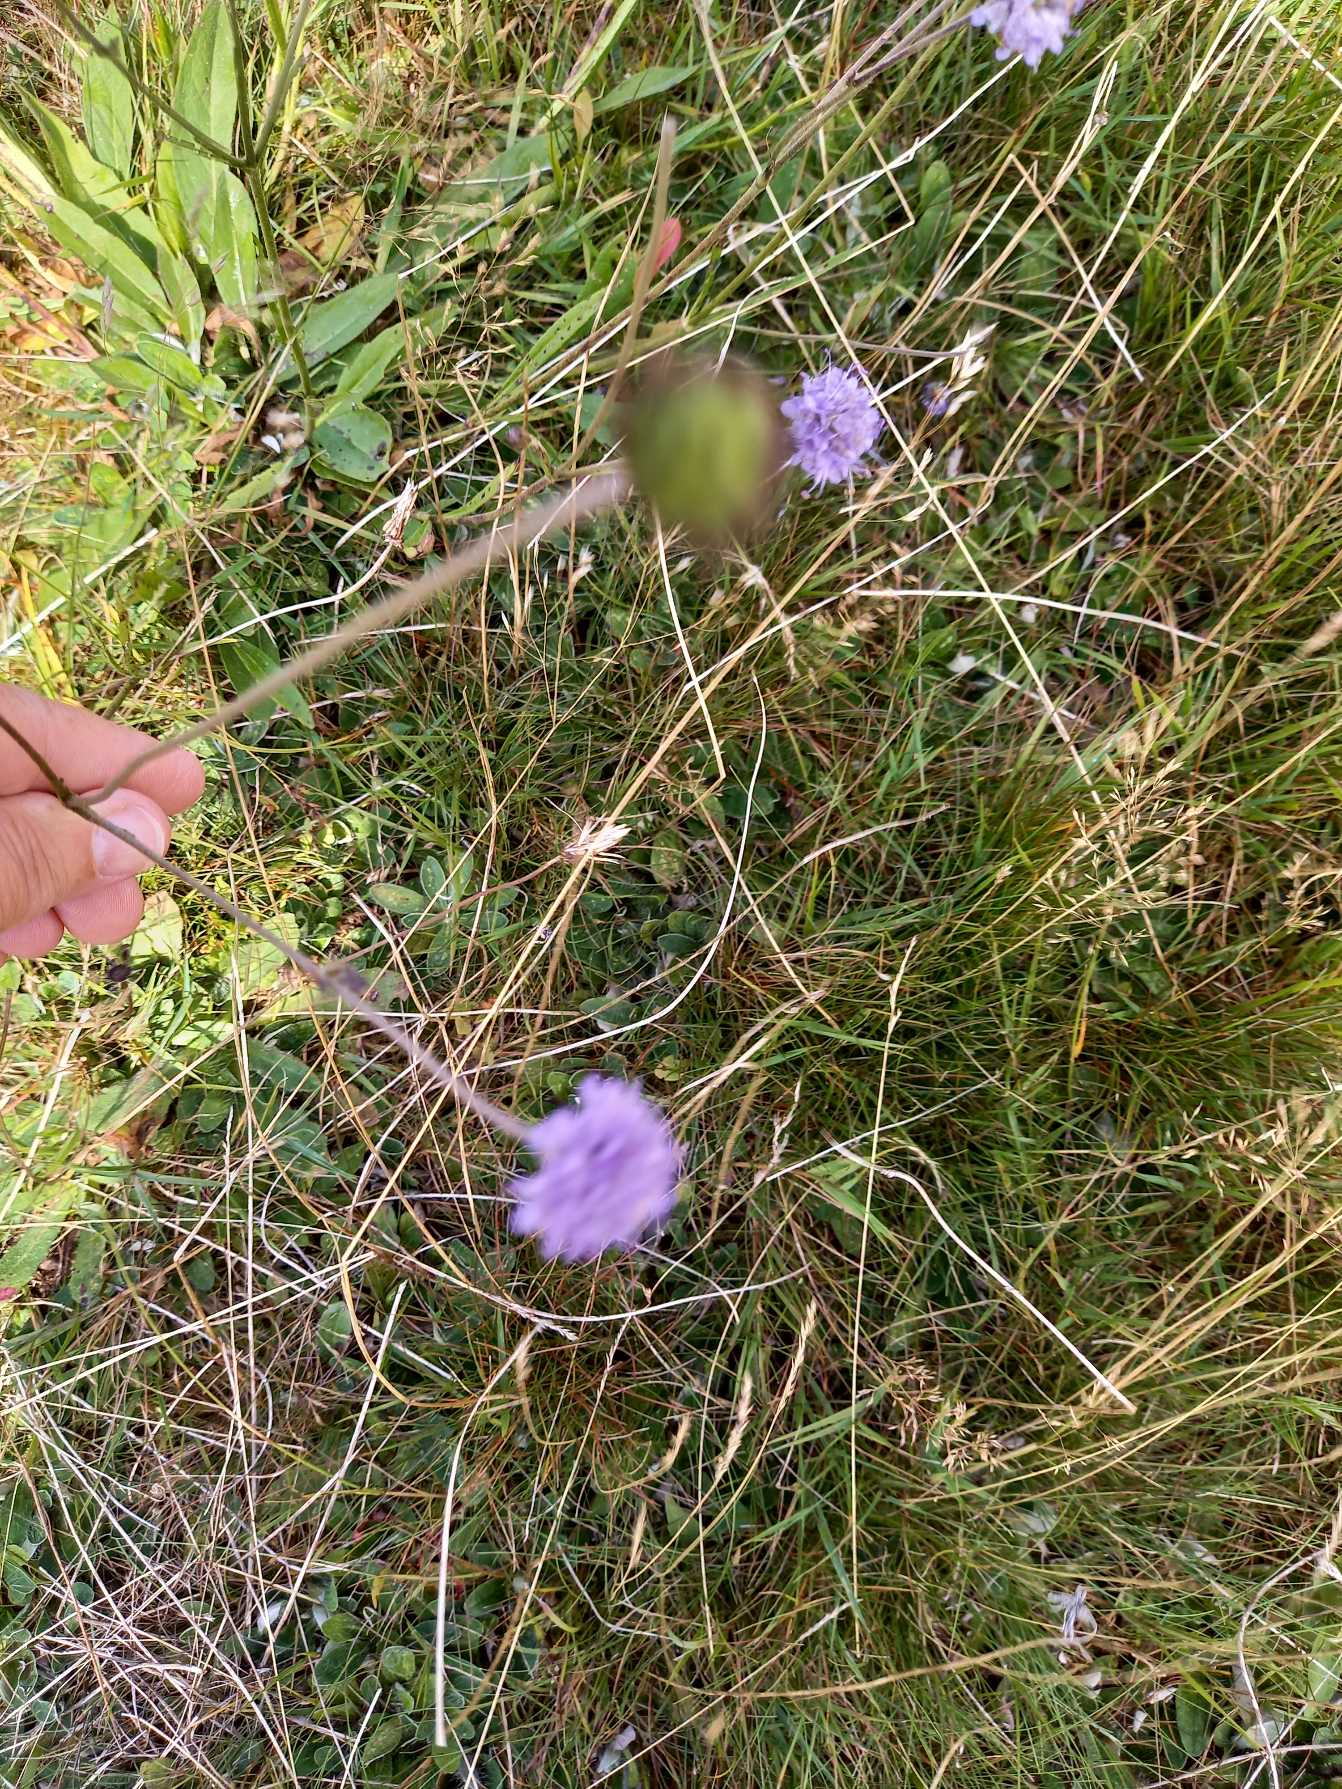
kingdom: Plantae
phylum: Tracheophyta
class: Magnoliopsida
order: Dipsacales
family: Caprifoliaceae
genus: Succisa
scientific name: Succisa pratensis
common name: Djævelsbid
